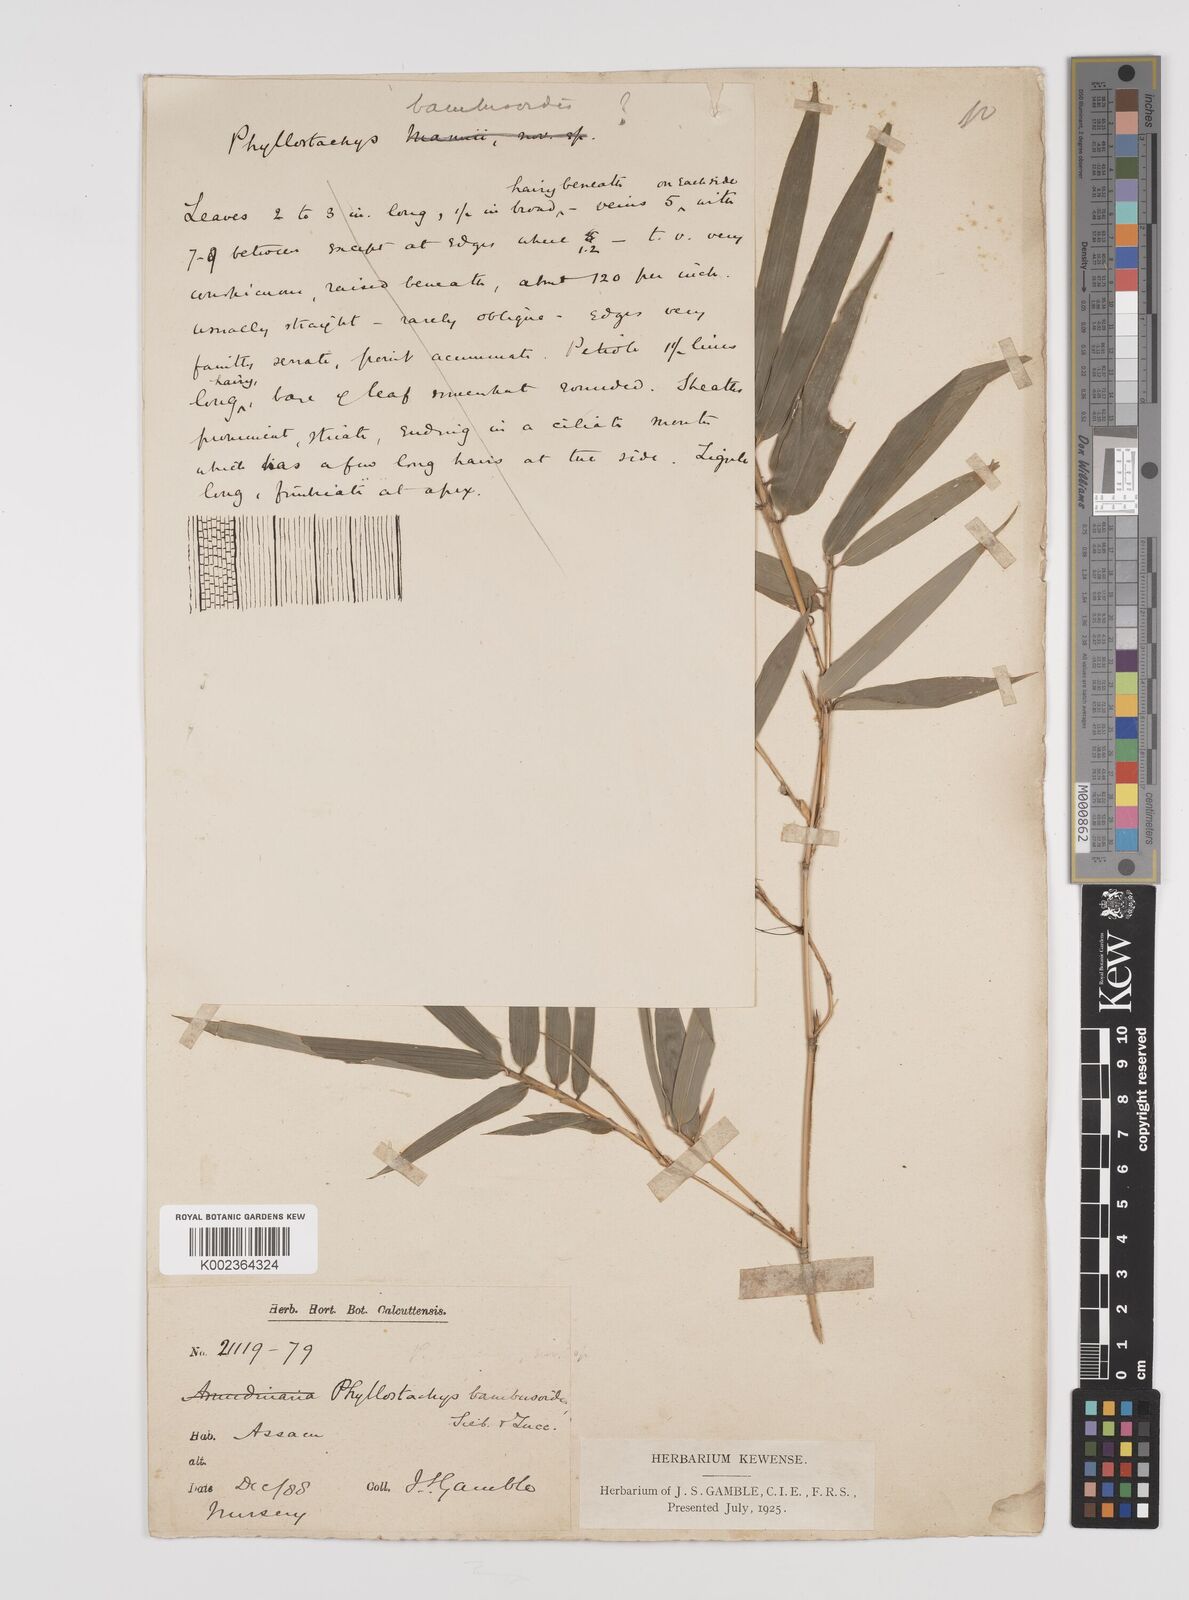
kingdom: Plantae
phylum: Tracheophyta
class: Liliopsida
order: Poales
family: Poaceae
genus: Phyllostachys
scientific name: Phyllostachys reticulata
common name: Bamboo
